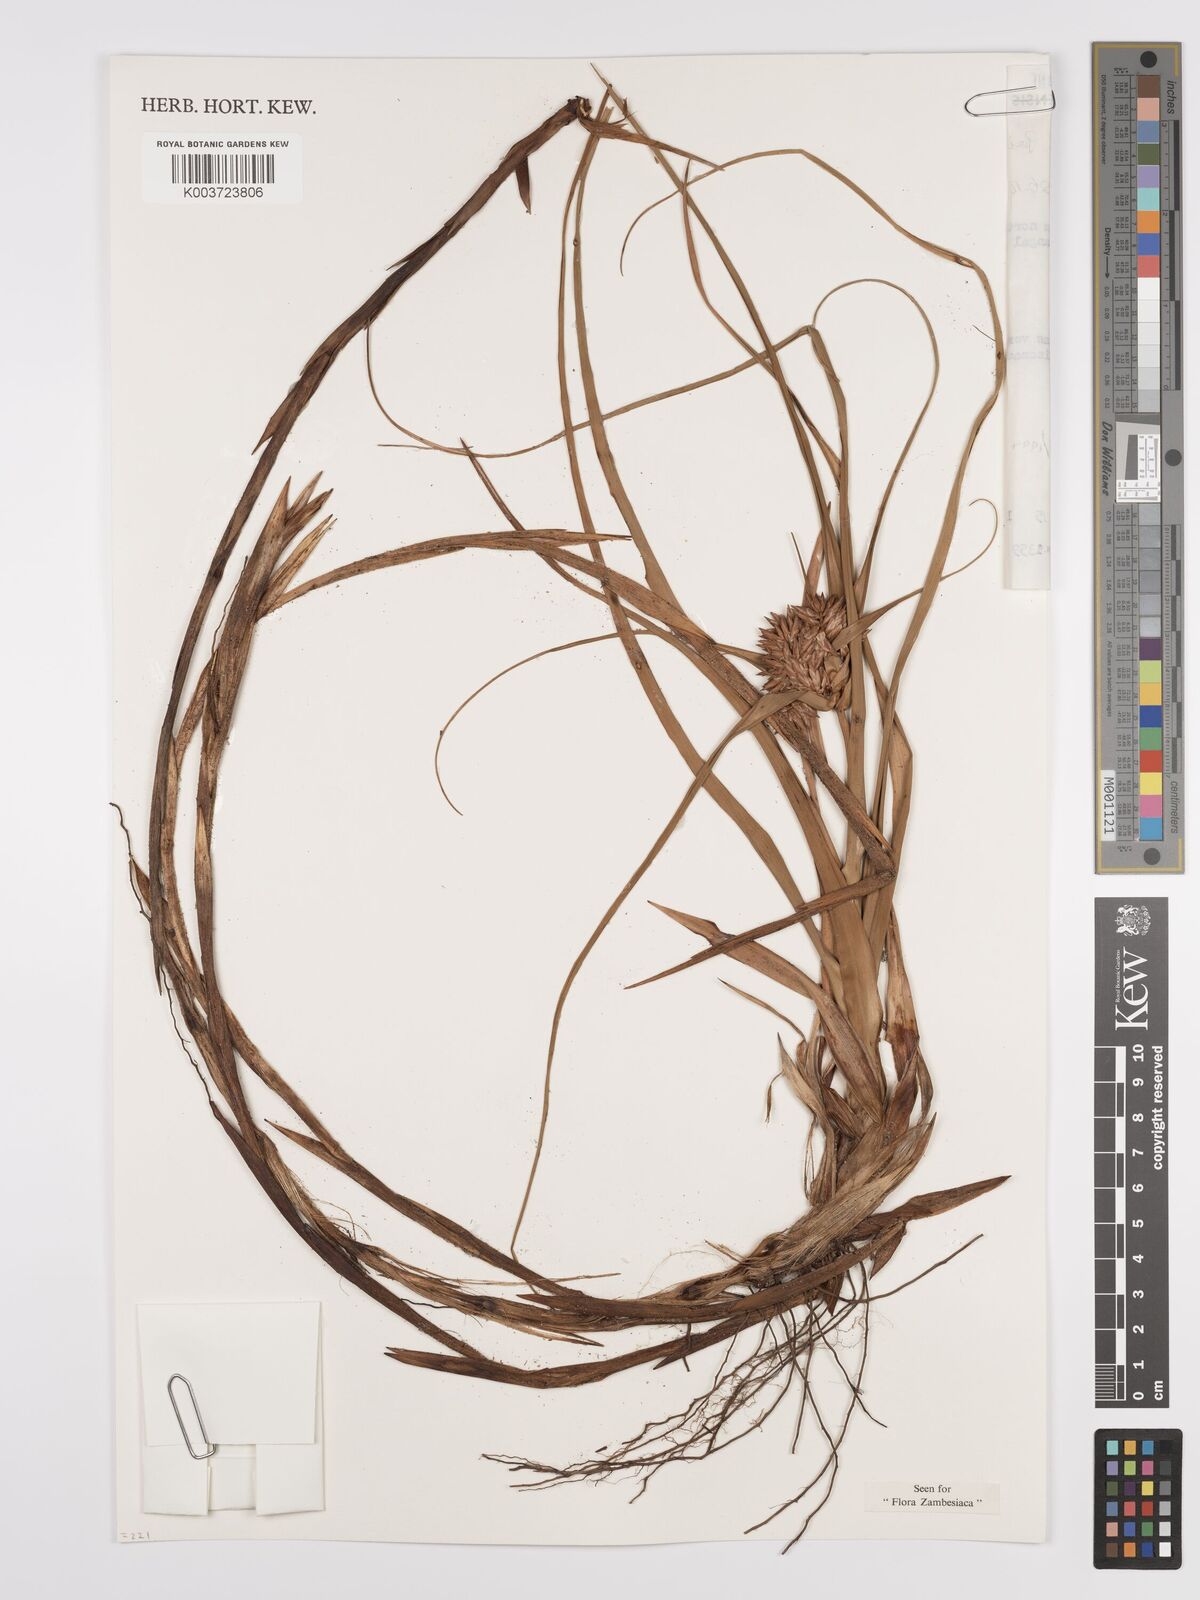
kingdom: Plantae
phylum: Tracheophyta
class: Liliopsida
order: Poales
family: Cyperaceae
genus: Cyperus
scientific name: Cyperus crassipes
